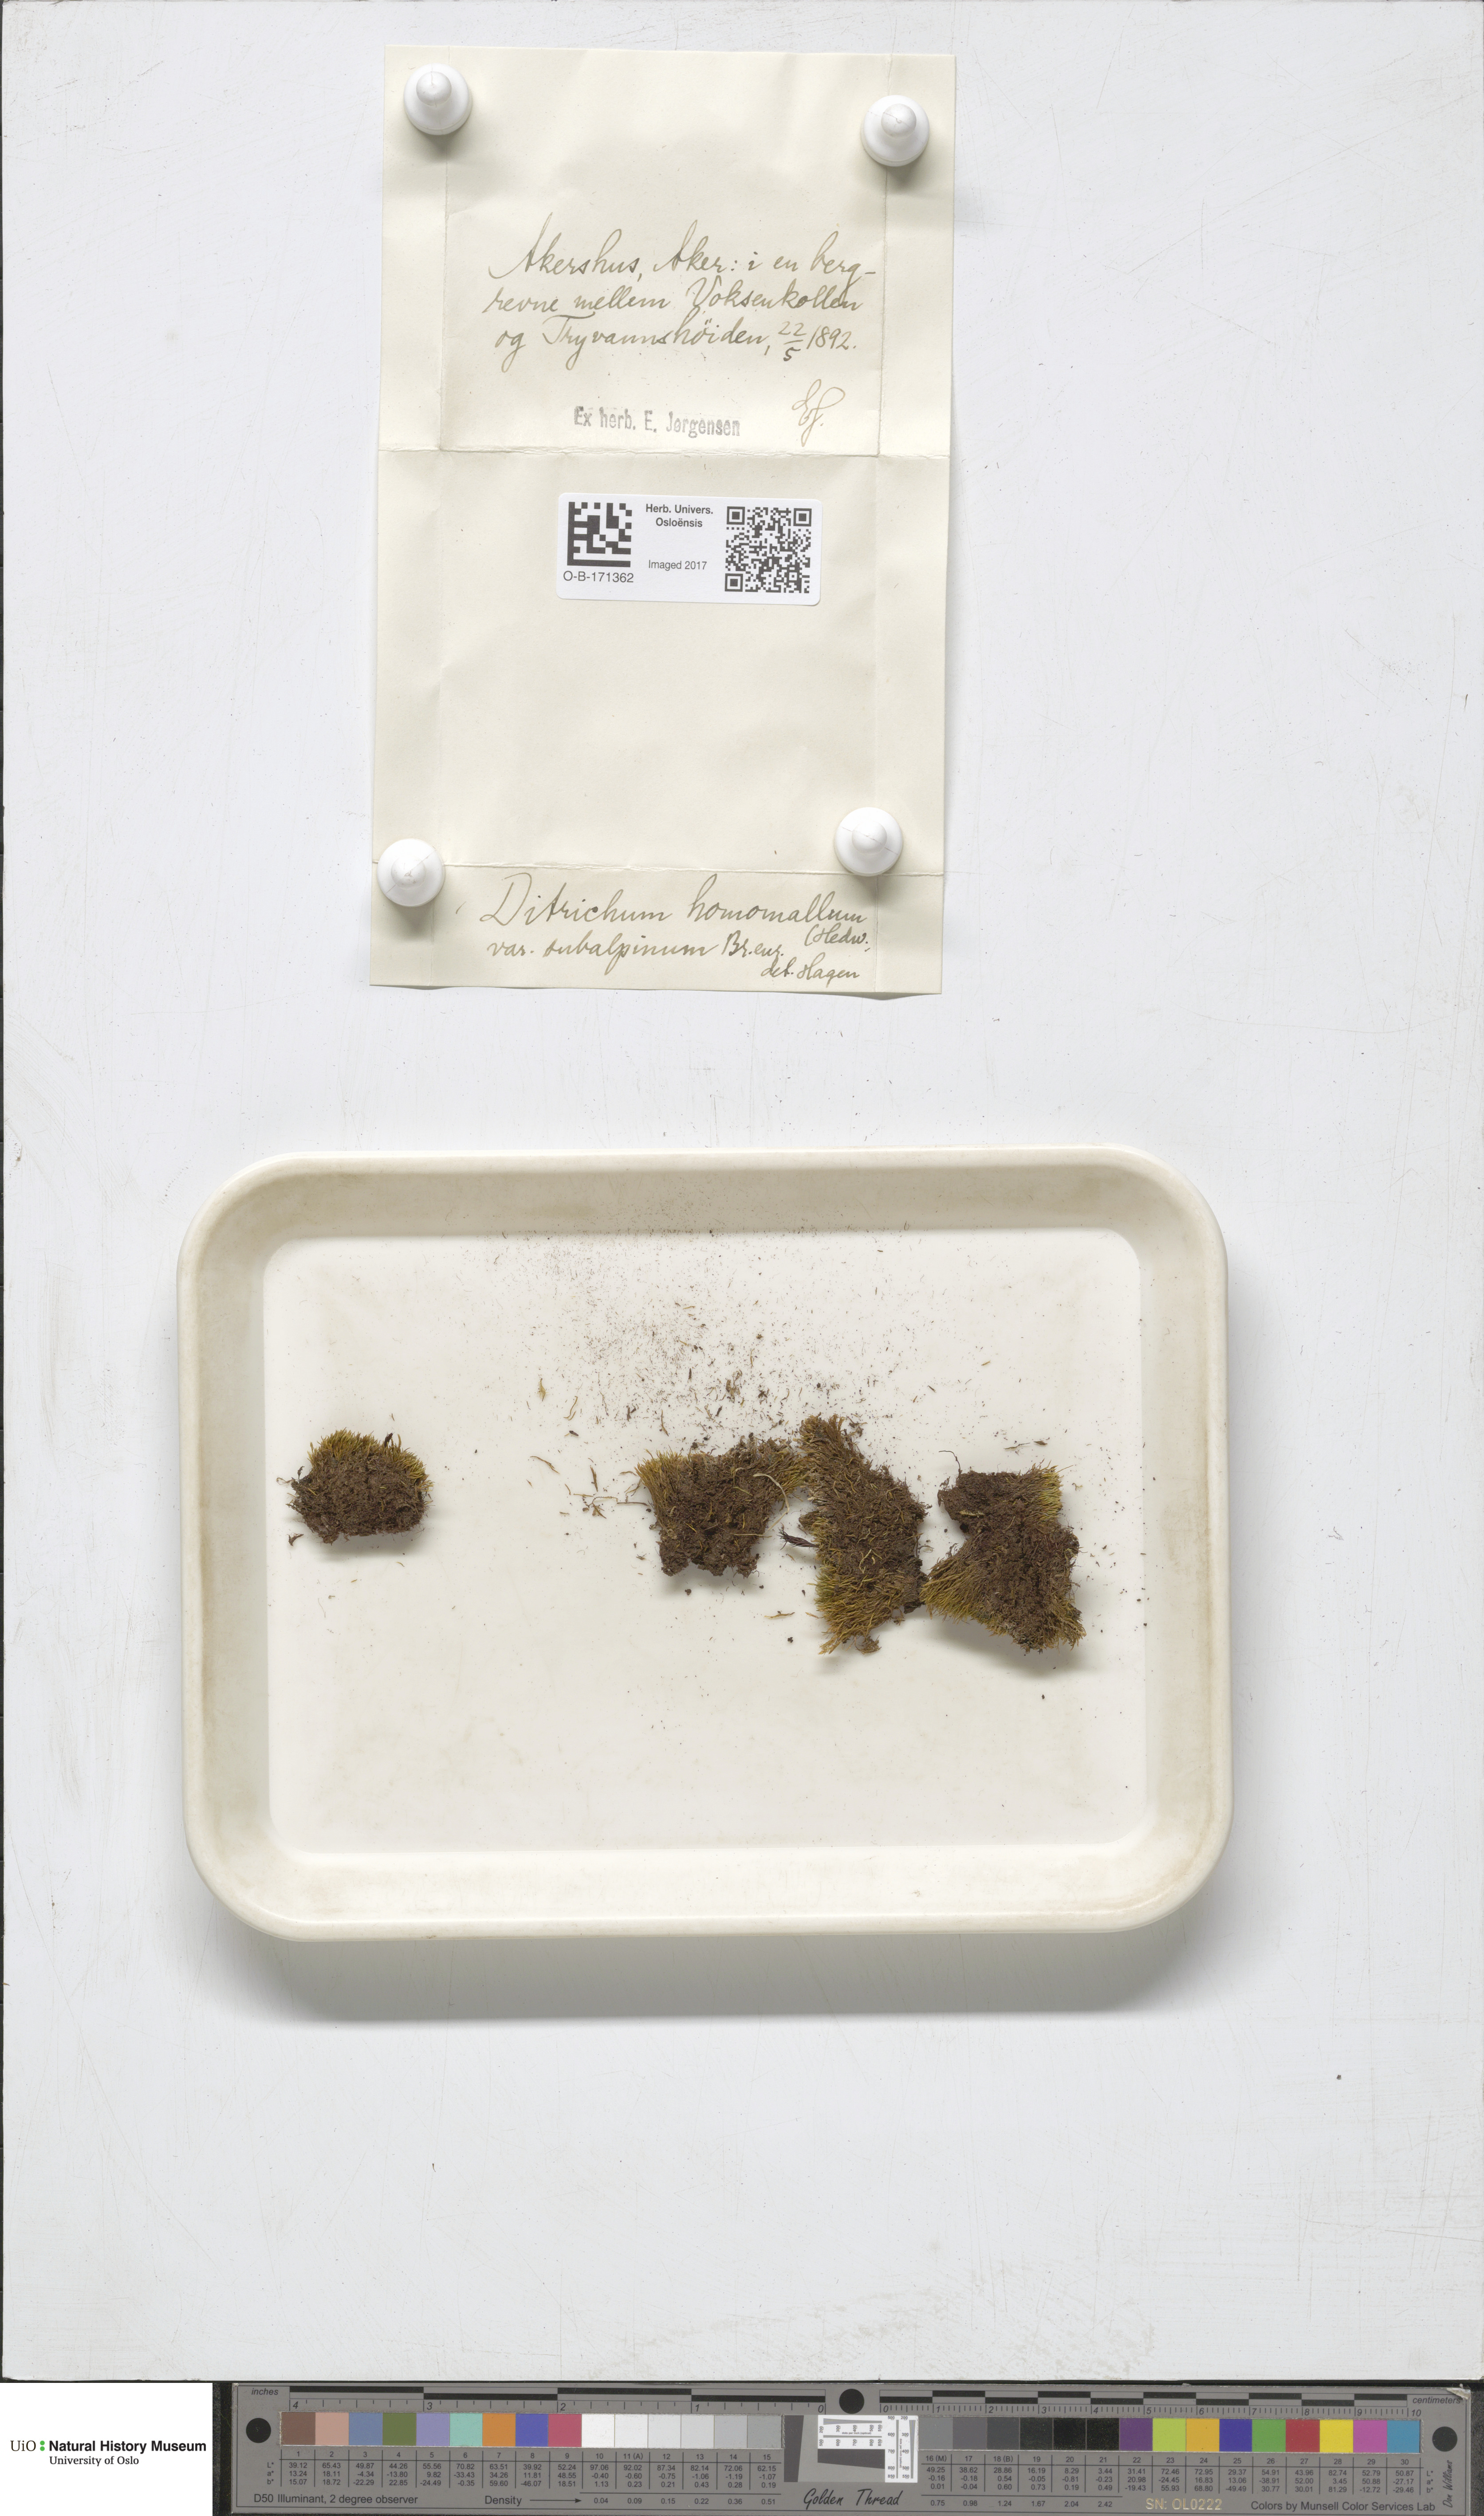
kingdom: Plantae
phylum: Bryophyta
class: Bryopsida
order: Dicranales
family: Ditrichaceae
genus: Ditrichum
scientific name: Ditrichum heteromallum
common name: Curve-leaved ditrichum
